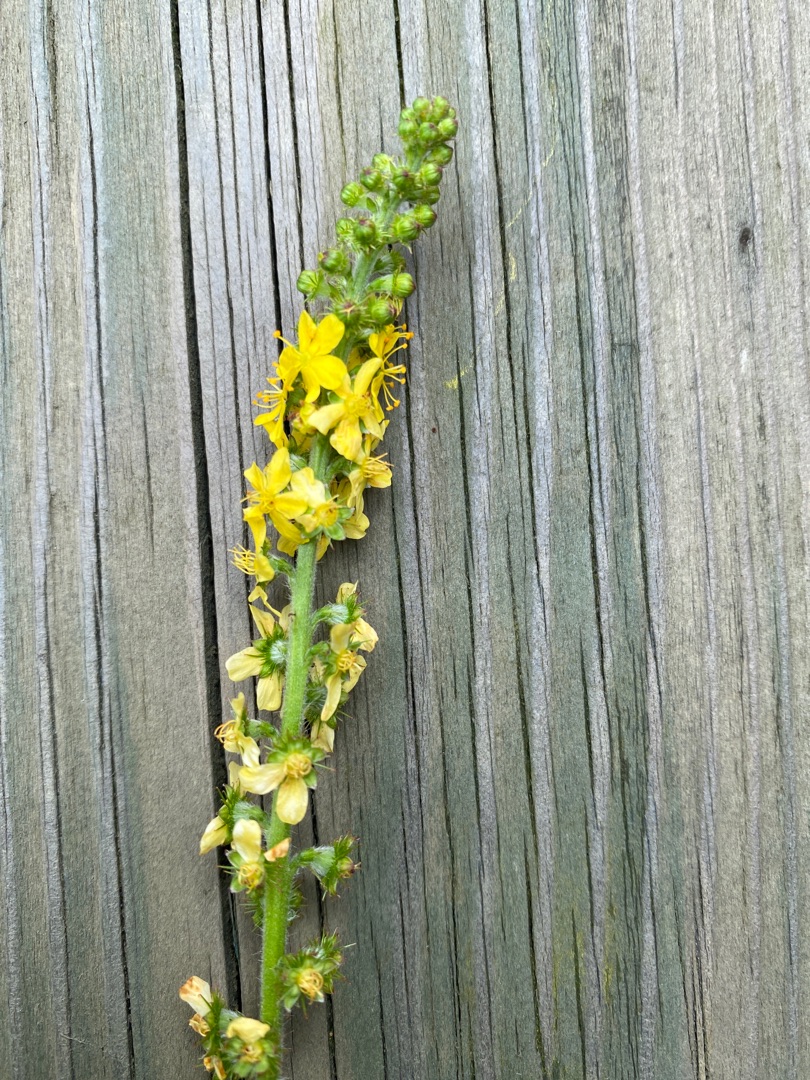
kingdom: Plantae
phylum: Tracheophyta
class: Magnoliopsida
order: Rosales
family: Rosaceae
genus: Agrimonia
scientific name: Agrimonia eupatoria
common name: Almindelig agermåne
